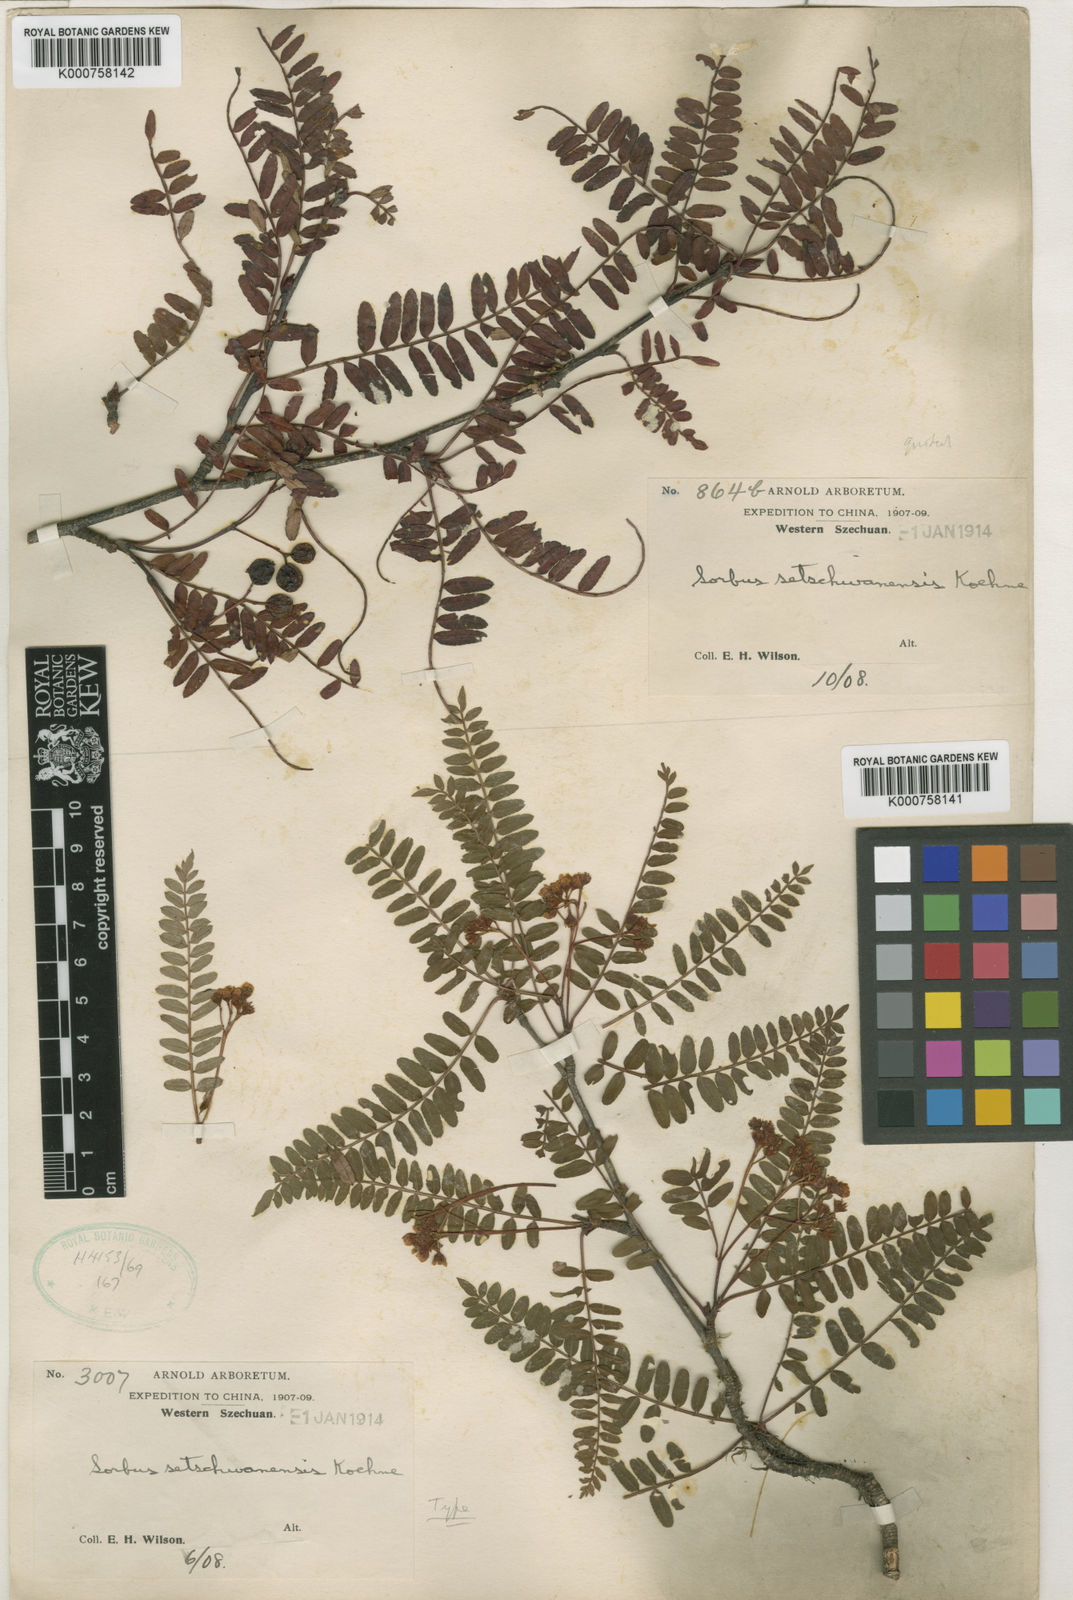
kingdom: Plantae
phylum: Tracheophyta
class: Magnoliopsida
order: Rosales
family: Rosaceae
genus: Sorbus
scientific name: Sorbus setschwanensis
